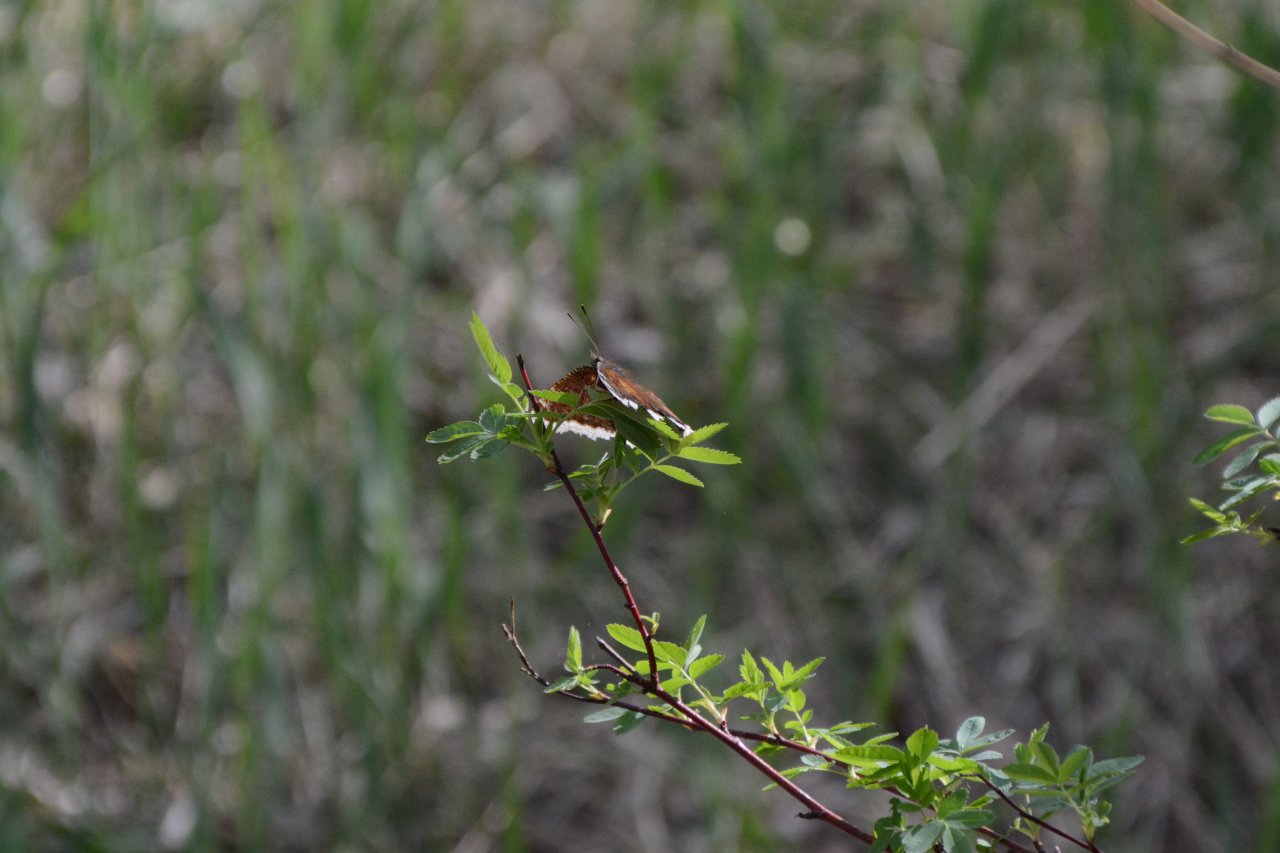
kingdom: Animalia
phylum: Arthropoda
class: Insecta
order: Lepidoptera
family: Nymphalidae
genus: Nymphalis
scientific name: Nymphalis antiopa
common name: Mourning Cloak
